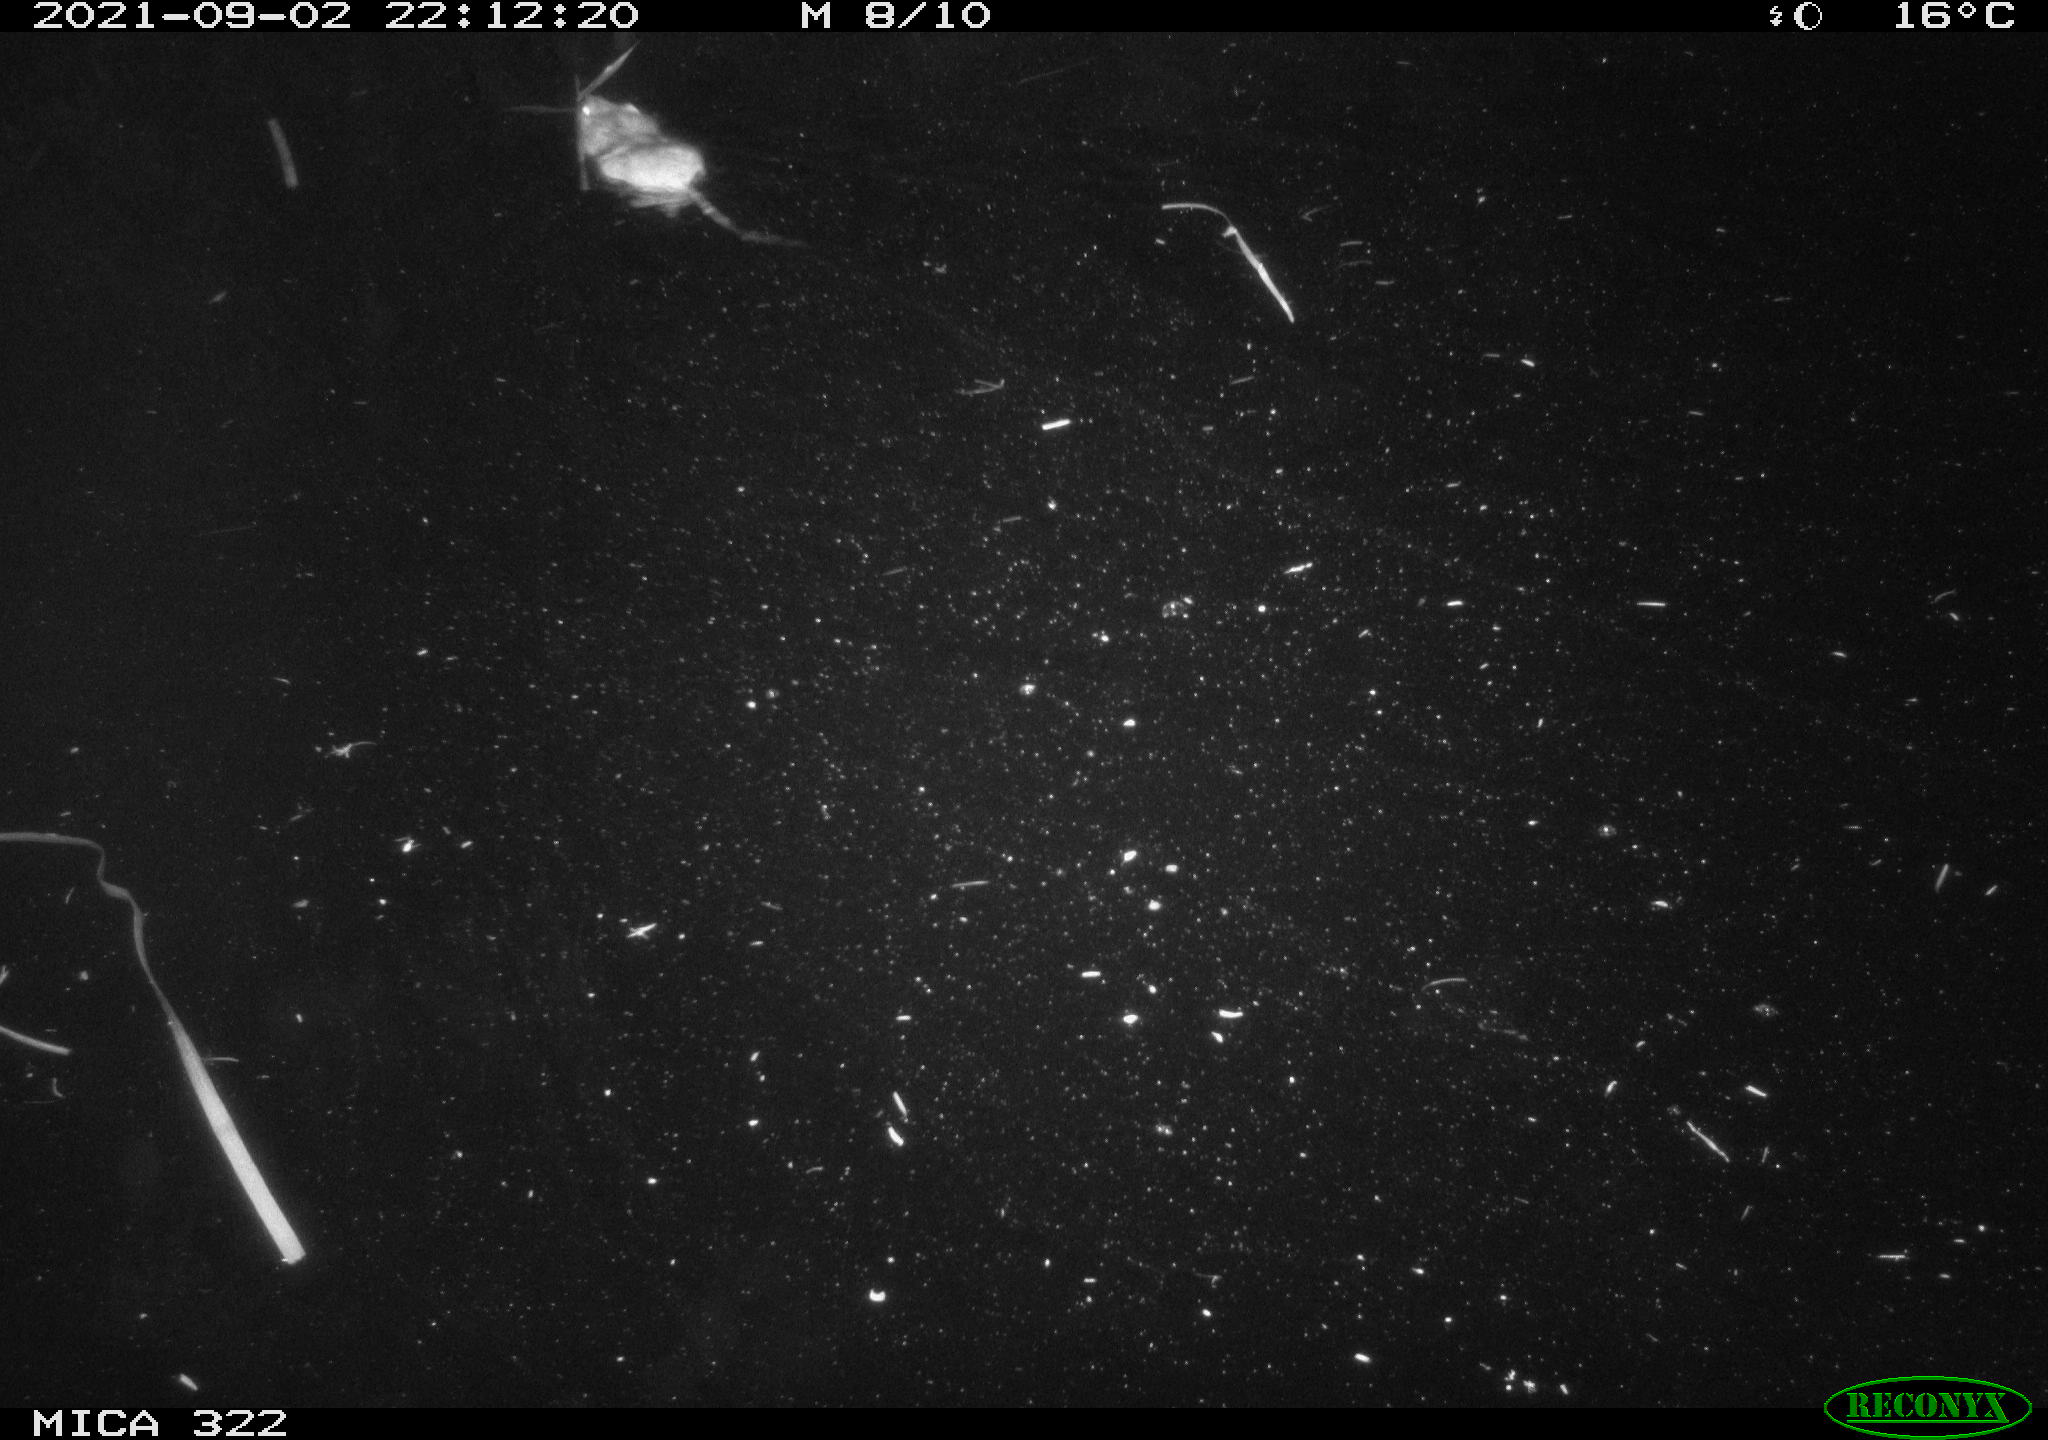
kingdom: Animalia
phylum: Chordata
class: Mammalia
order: Rodentia
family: Cricetidae
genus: Ondatra
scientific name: Ondatra zibethicus
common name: Muskrat
